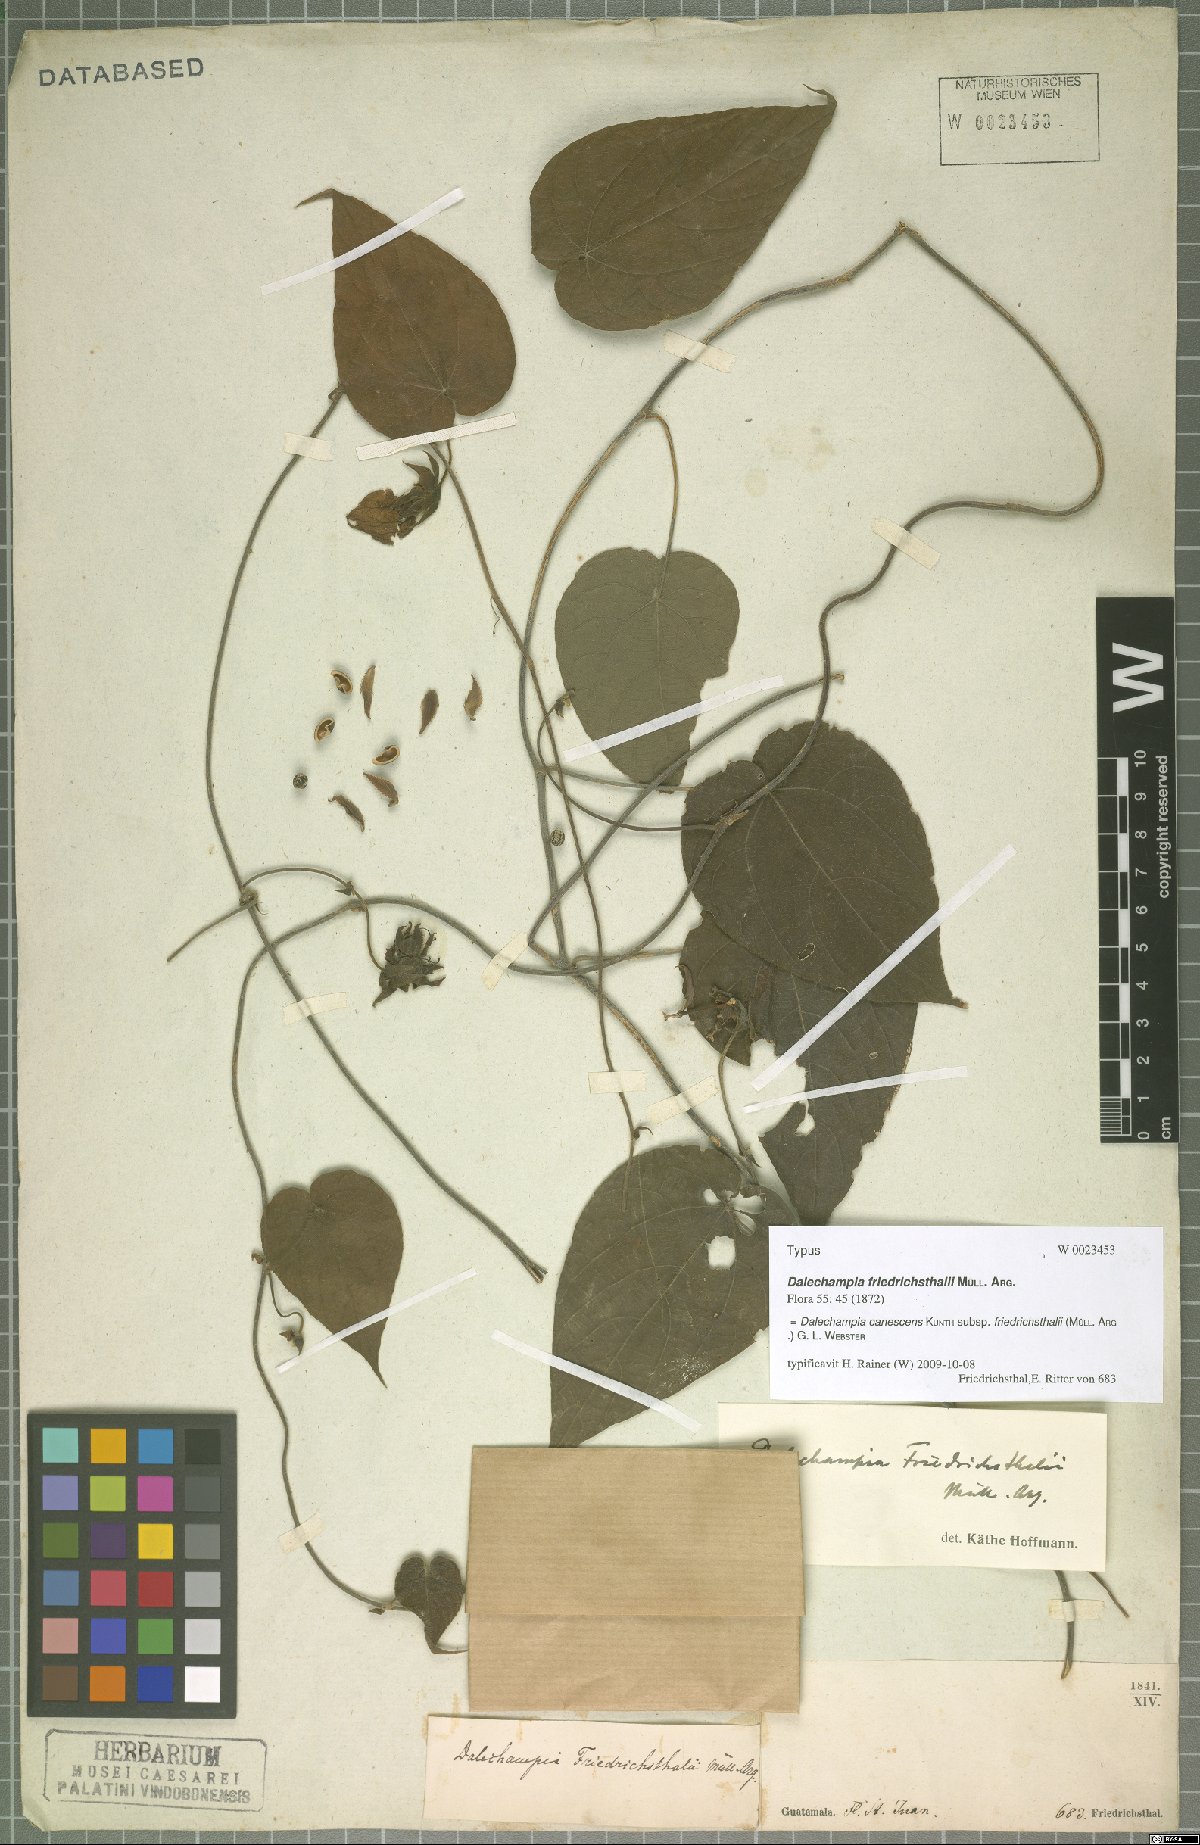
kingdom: Plantae
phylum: Tracheophyta
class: Magnoliopsida
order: Malpighiales
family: Euphorbiaceae
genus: Dalechampia
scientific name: Dalechampia canescens
